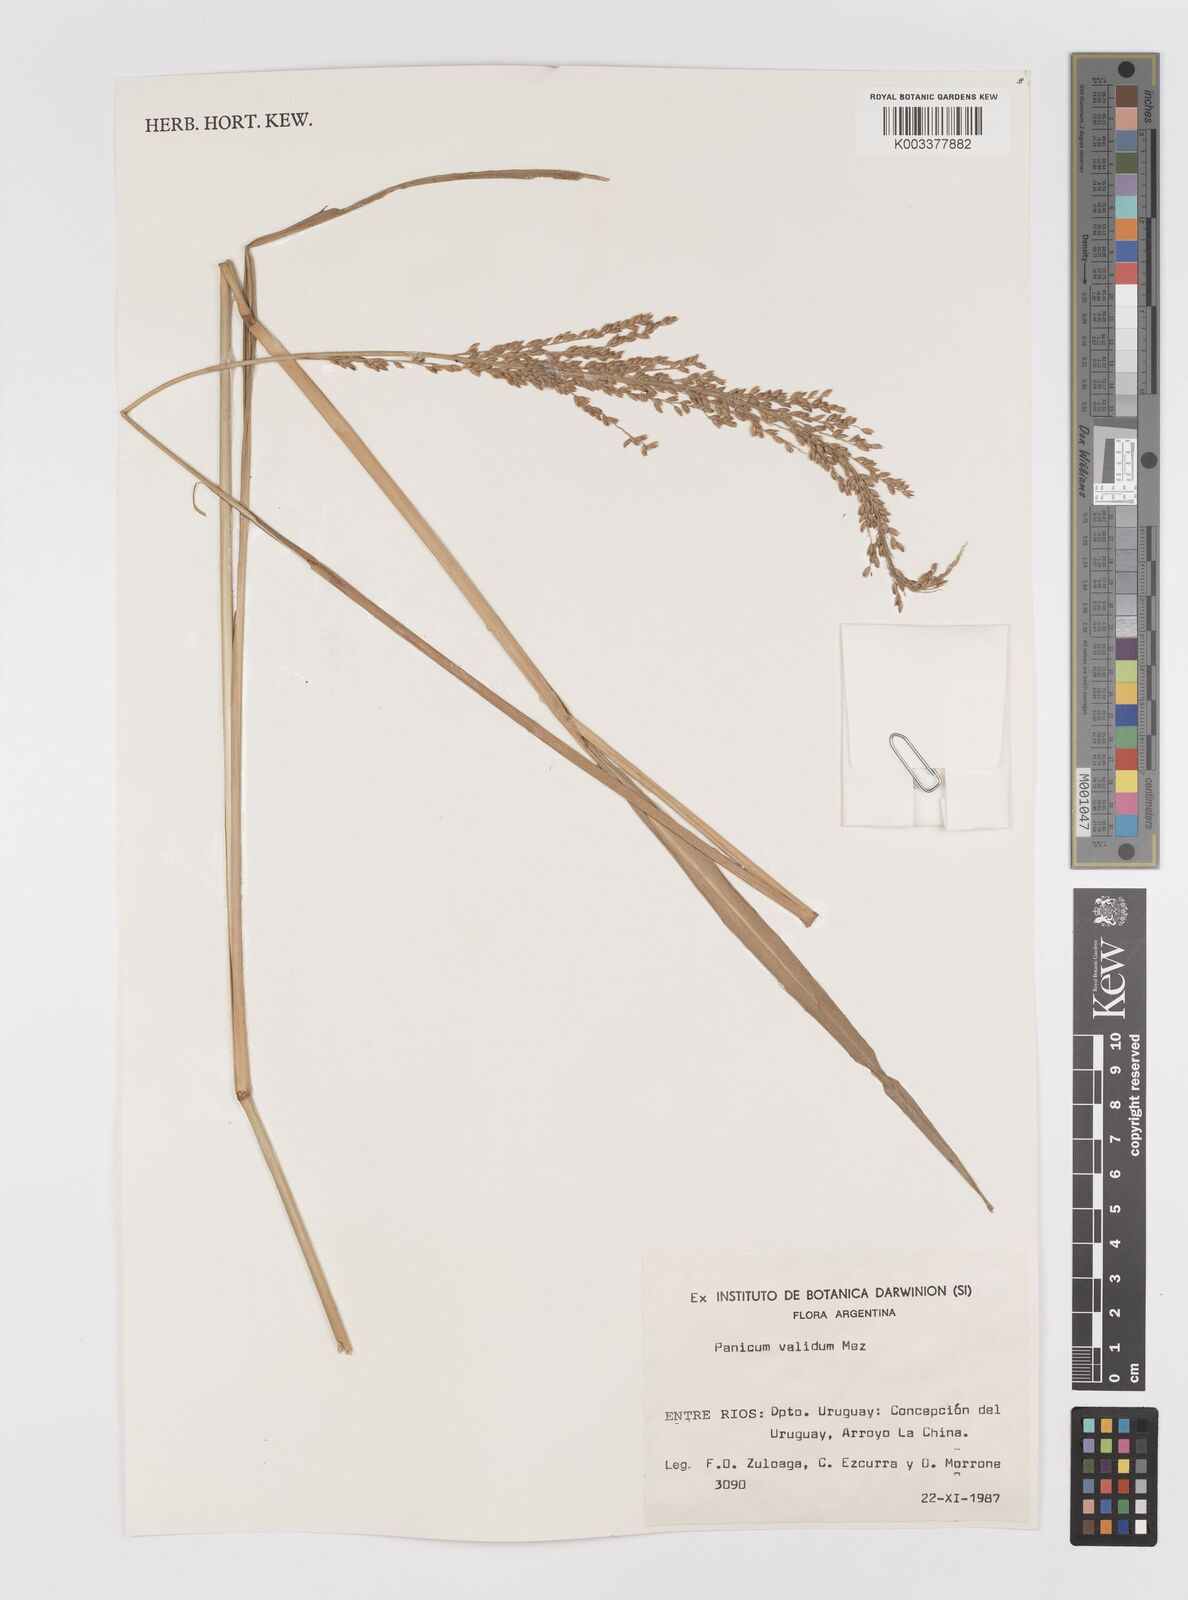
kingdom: Plantae
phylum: Tracheophyta
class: Liliopsida
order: Poales
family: Poaceae
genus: Osvaldoa
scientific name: Osvaldoa valida
